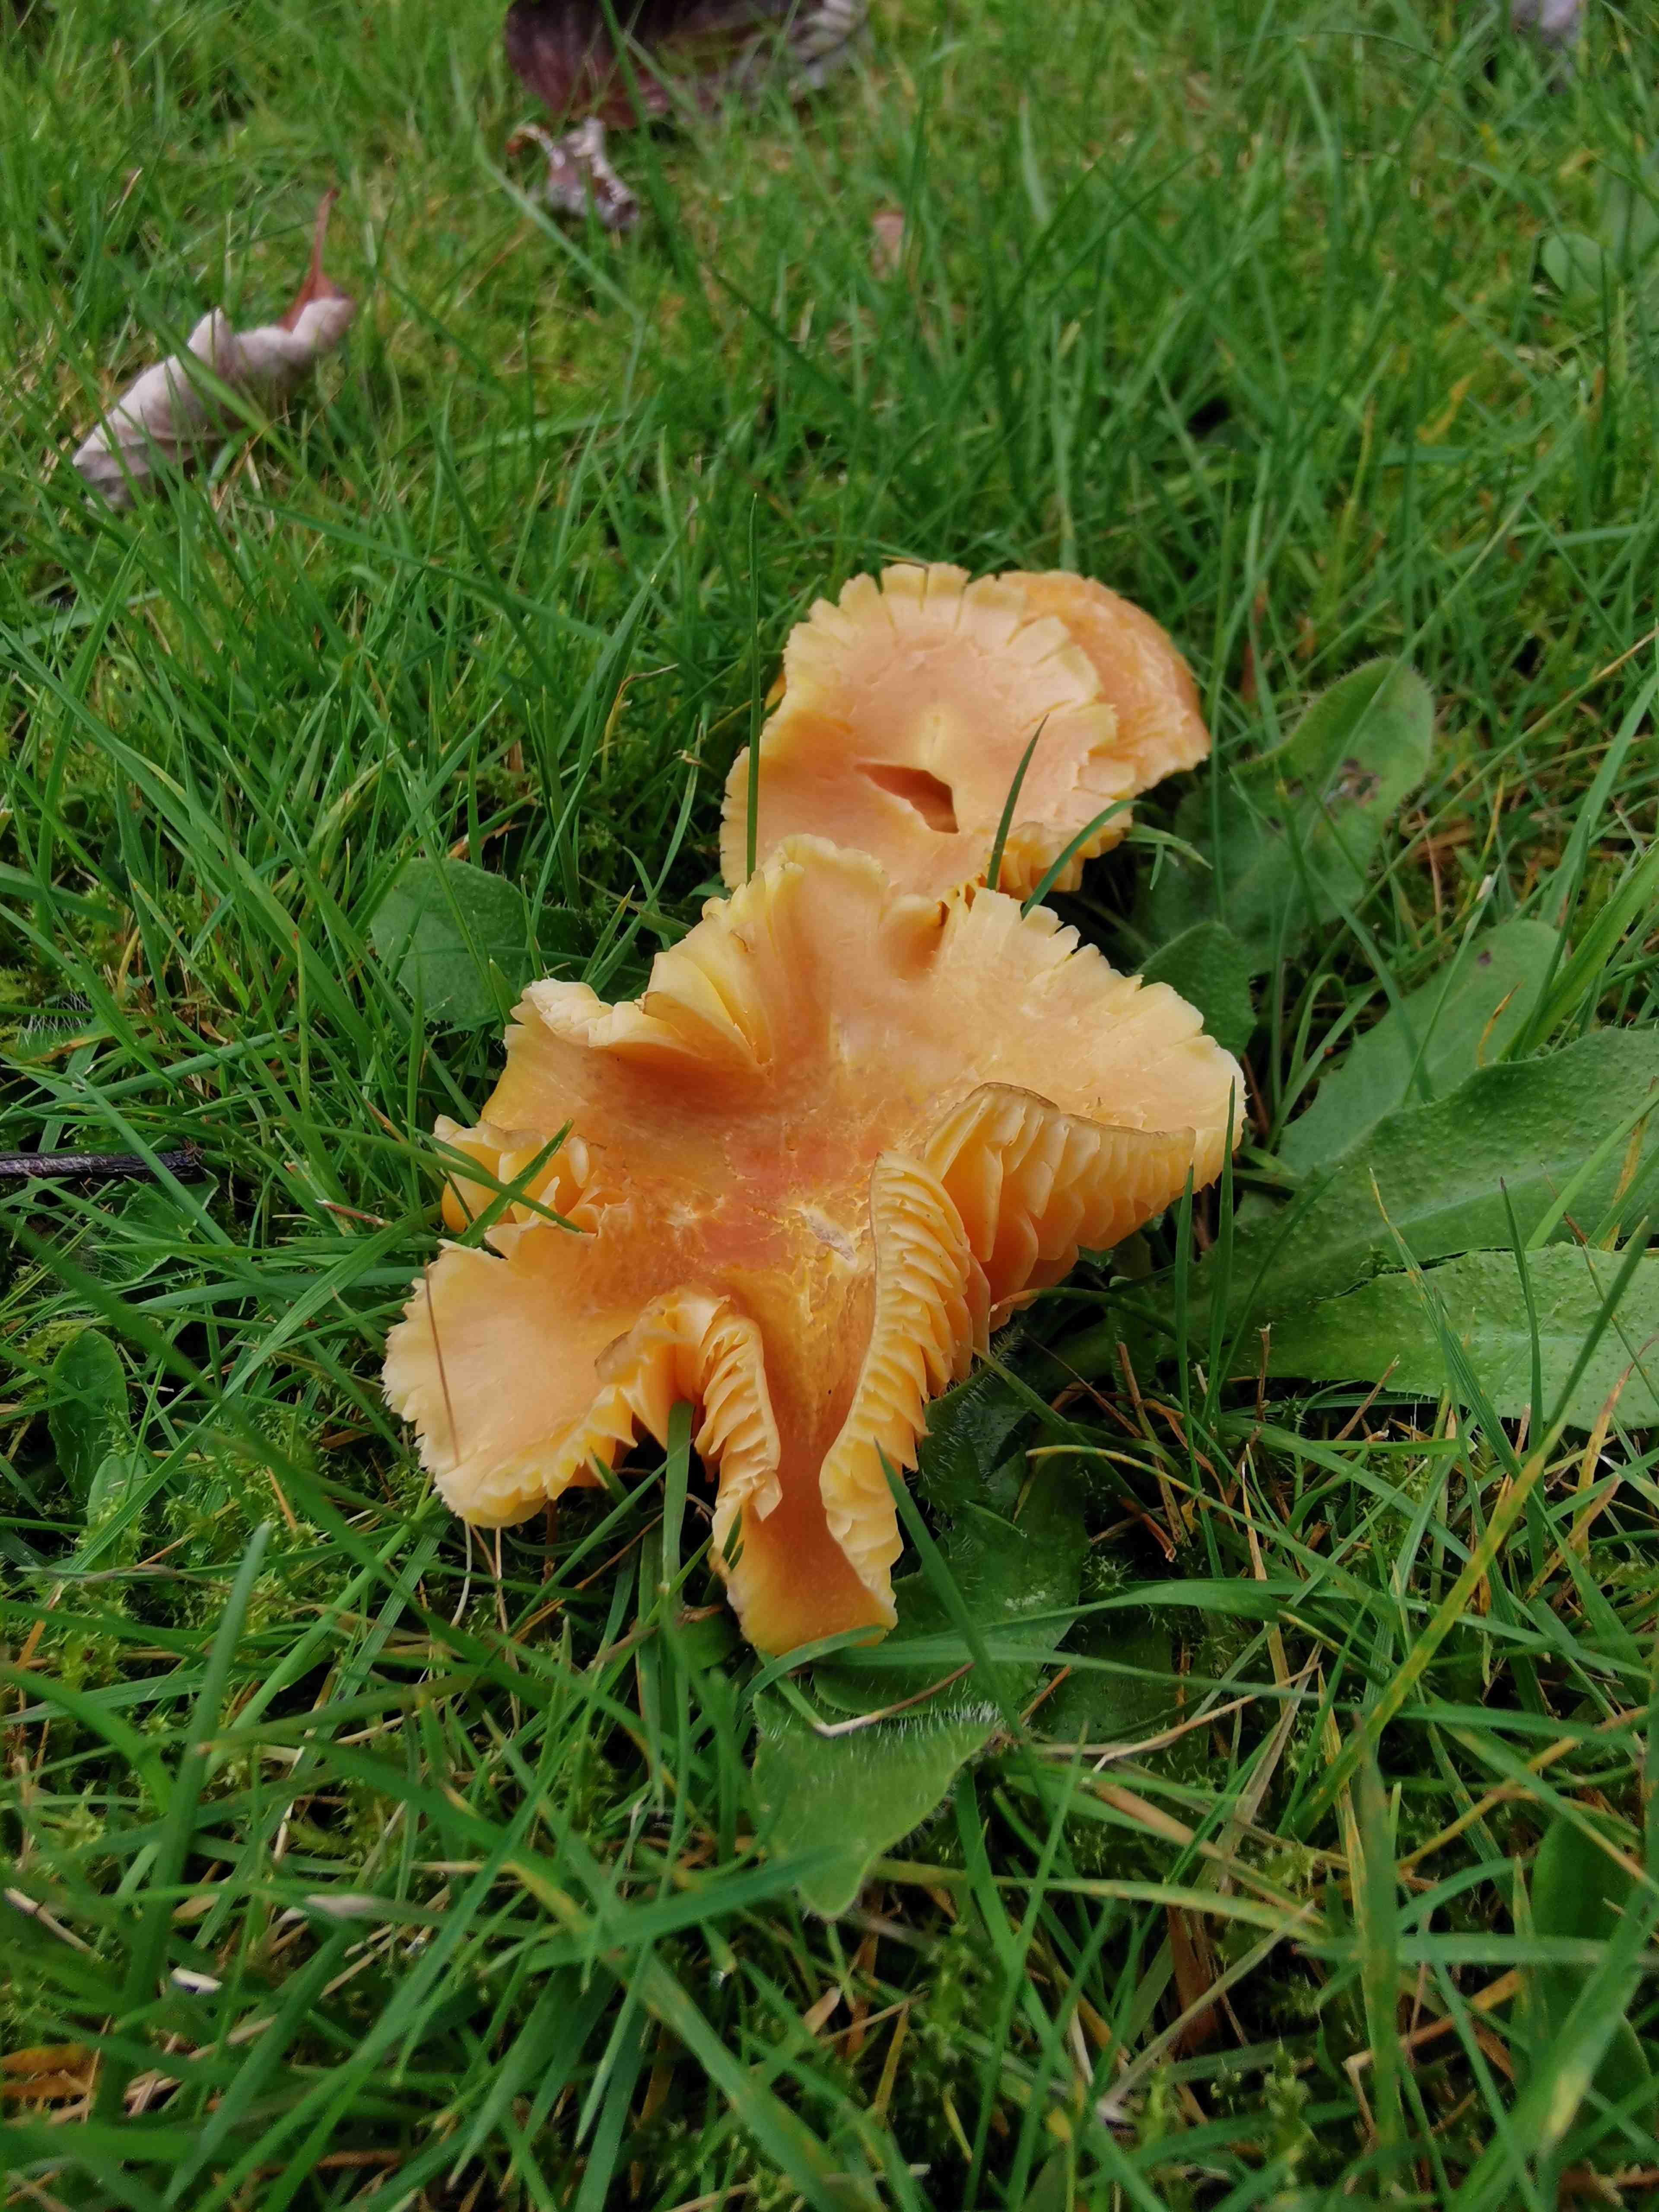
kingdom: Fungi
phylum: Basidiomycota
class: Agaricomycetes
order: Agaricales
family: Hygrophoraceae
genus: Hygrocybe
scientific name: Hygrocybe miniata
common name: mønje-vokshat
